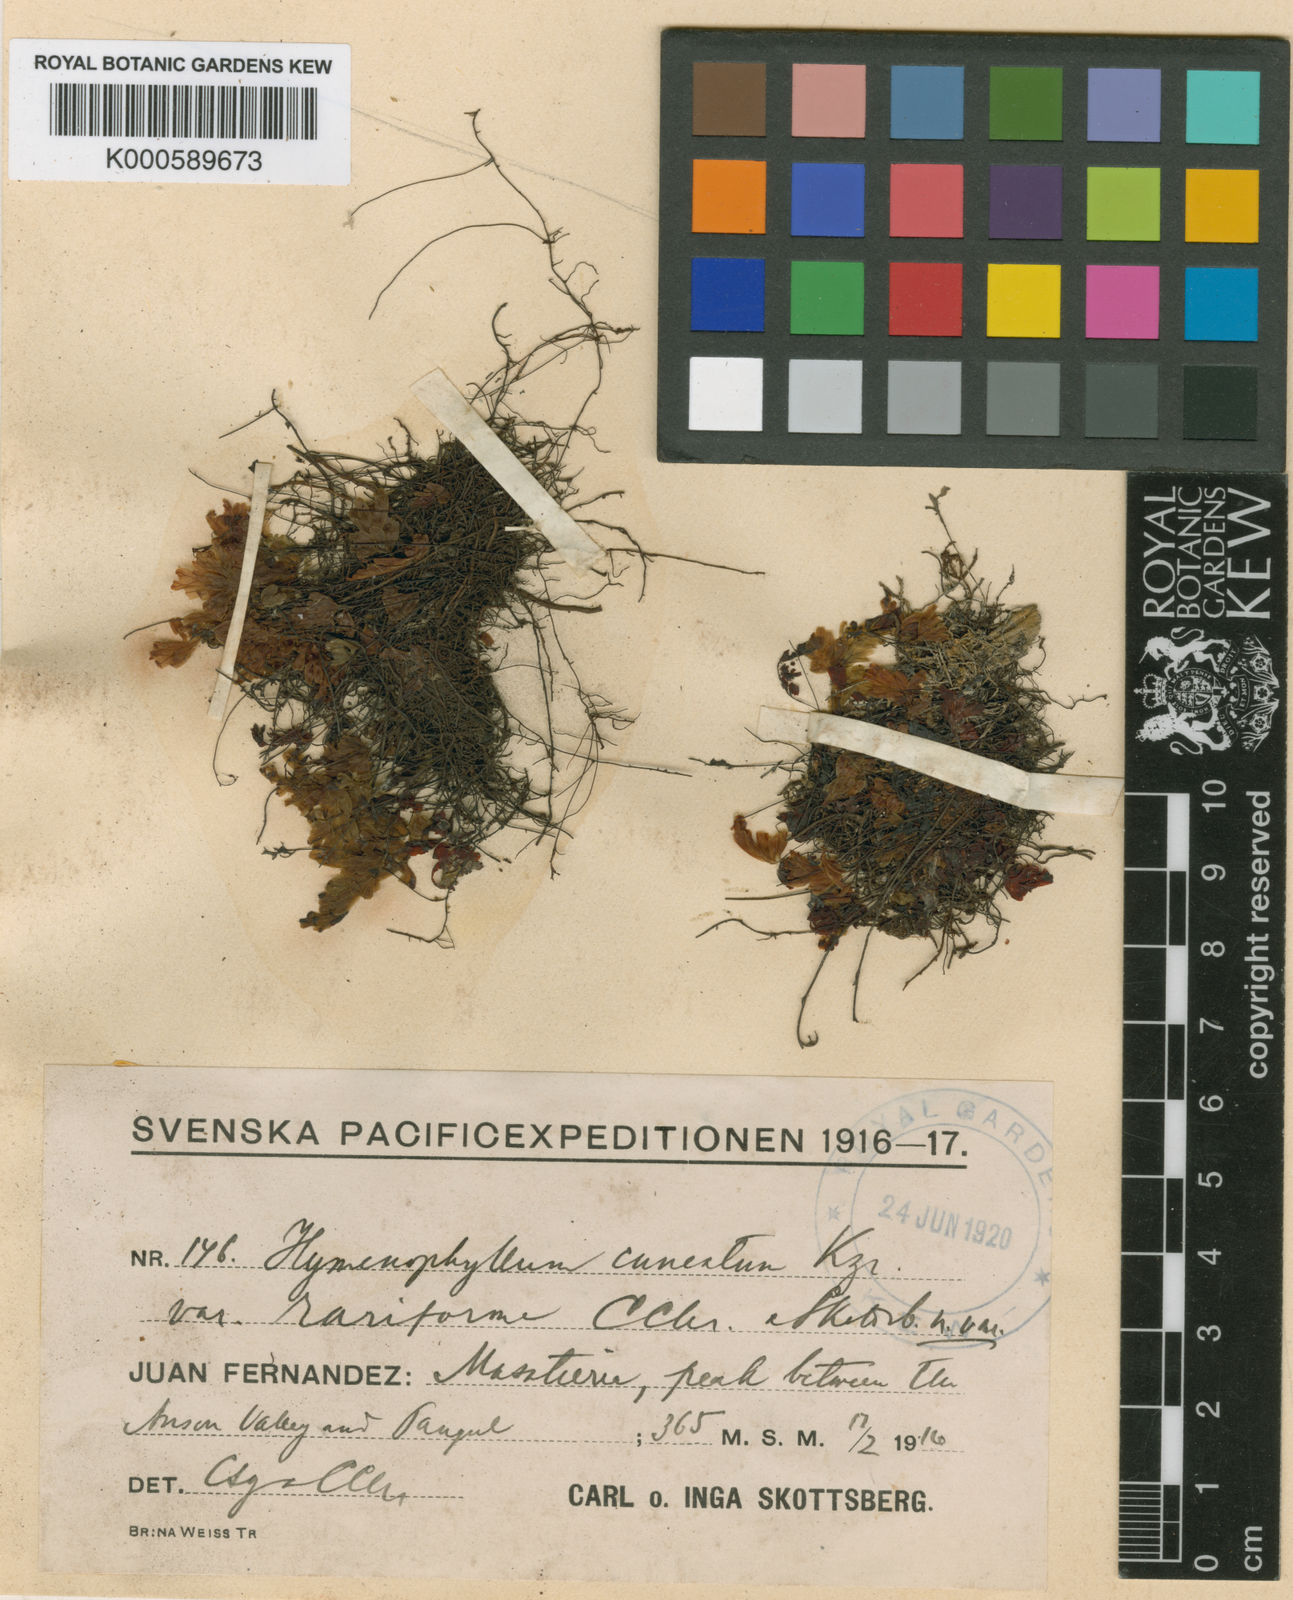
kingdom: Plantae
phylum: Tracheophyta
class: Polypodiopsida
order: Hymenophyllales
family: Hymenophyllaceae
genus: Hymenophyllum
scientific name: Hymenophyllum cuneatum
